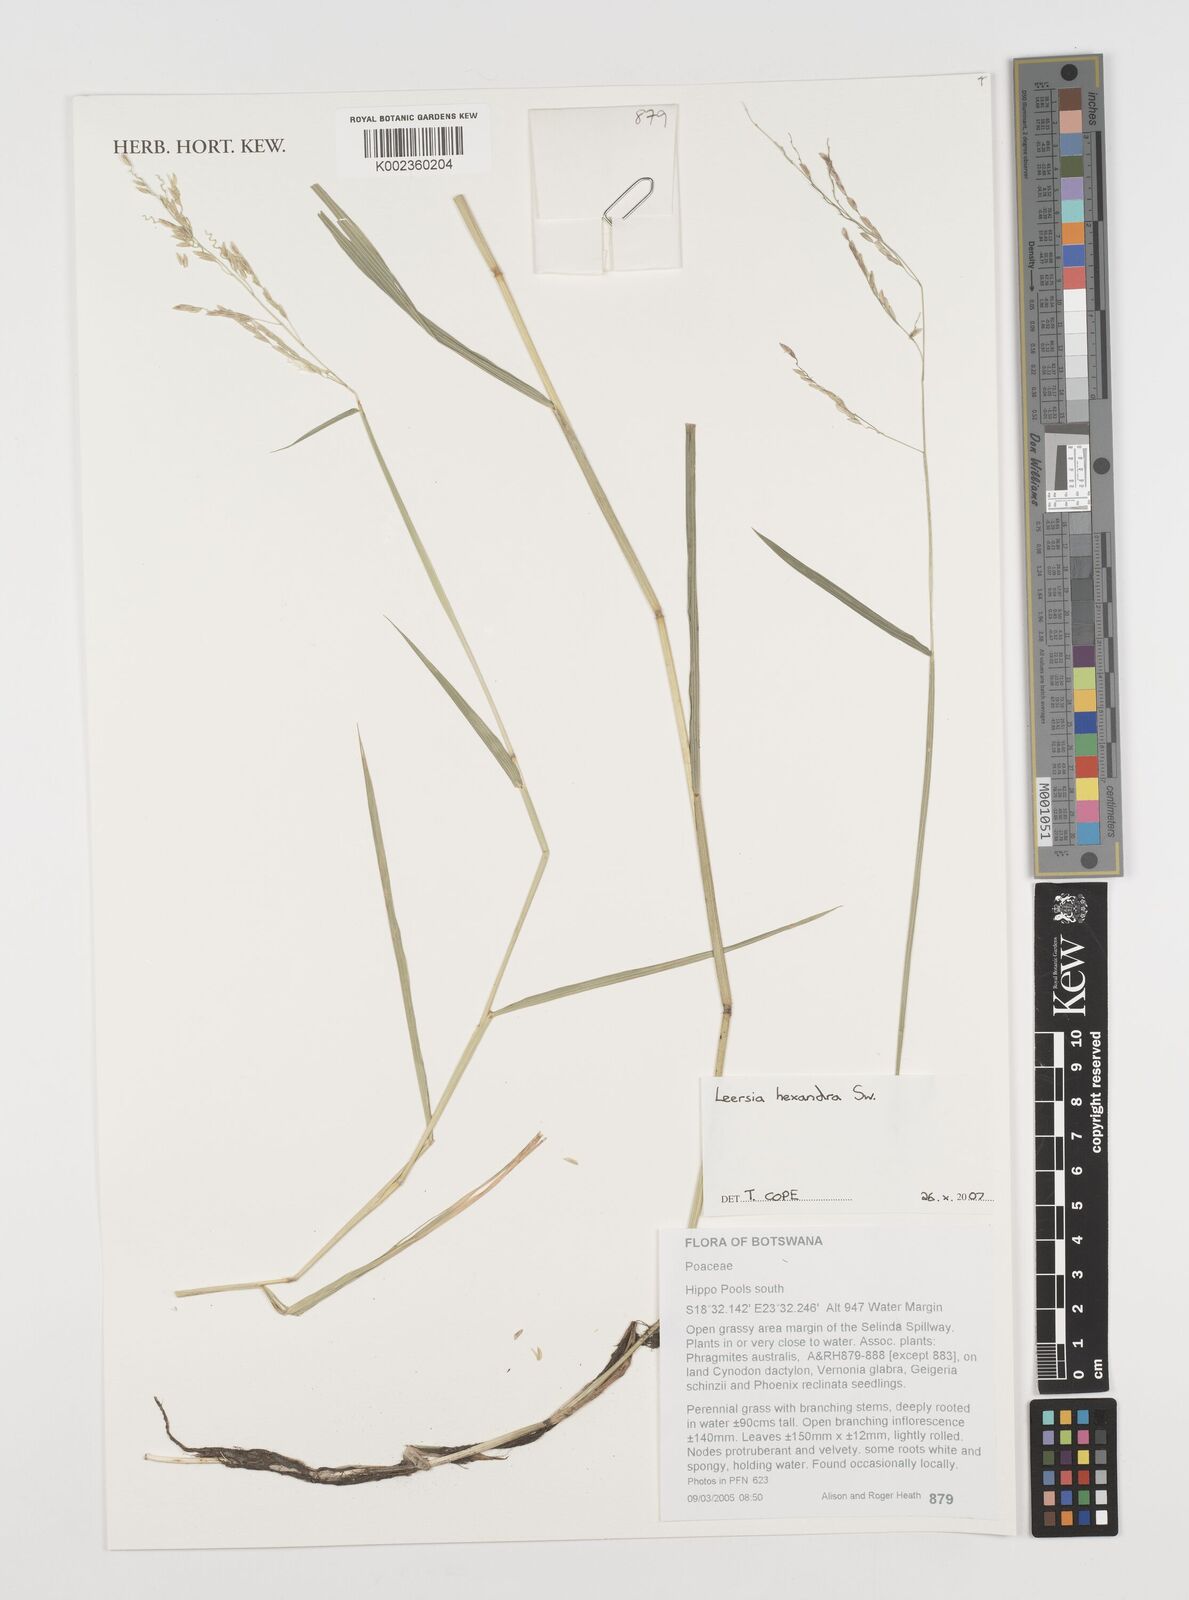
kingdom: Plantae
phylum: Tracheophyta
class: Liliopsida
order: Poales
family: Poaceae
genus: Leersia
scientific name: Leersia hexandra
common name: Southern cut grass
